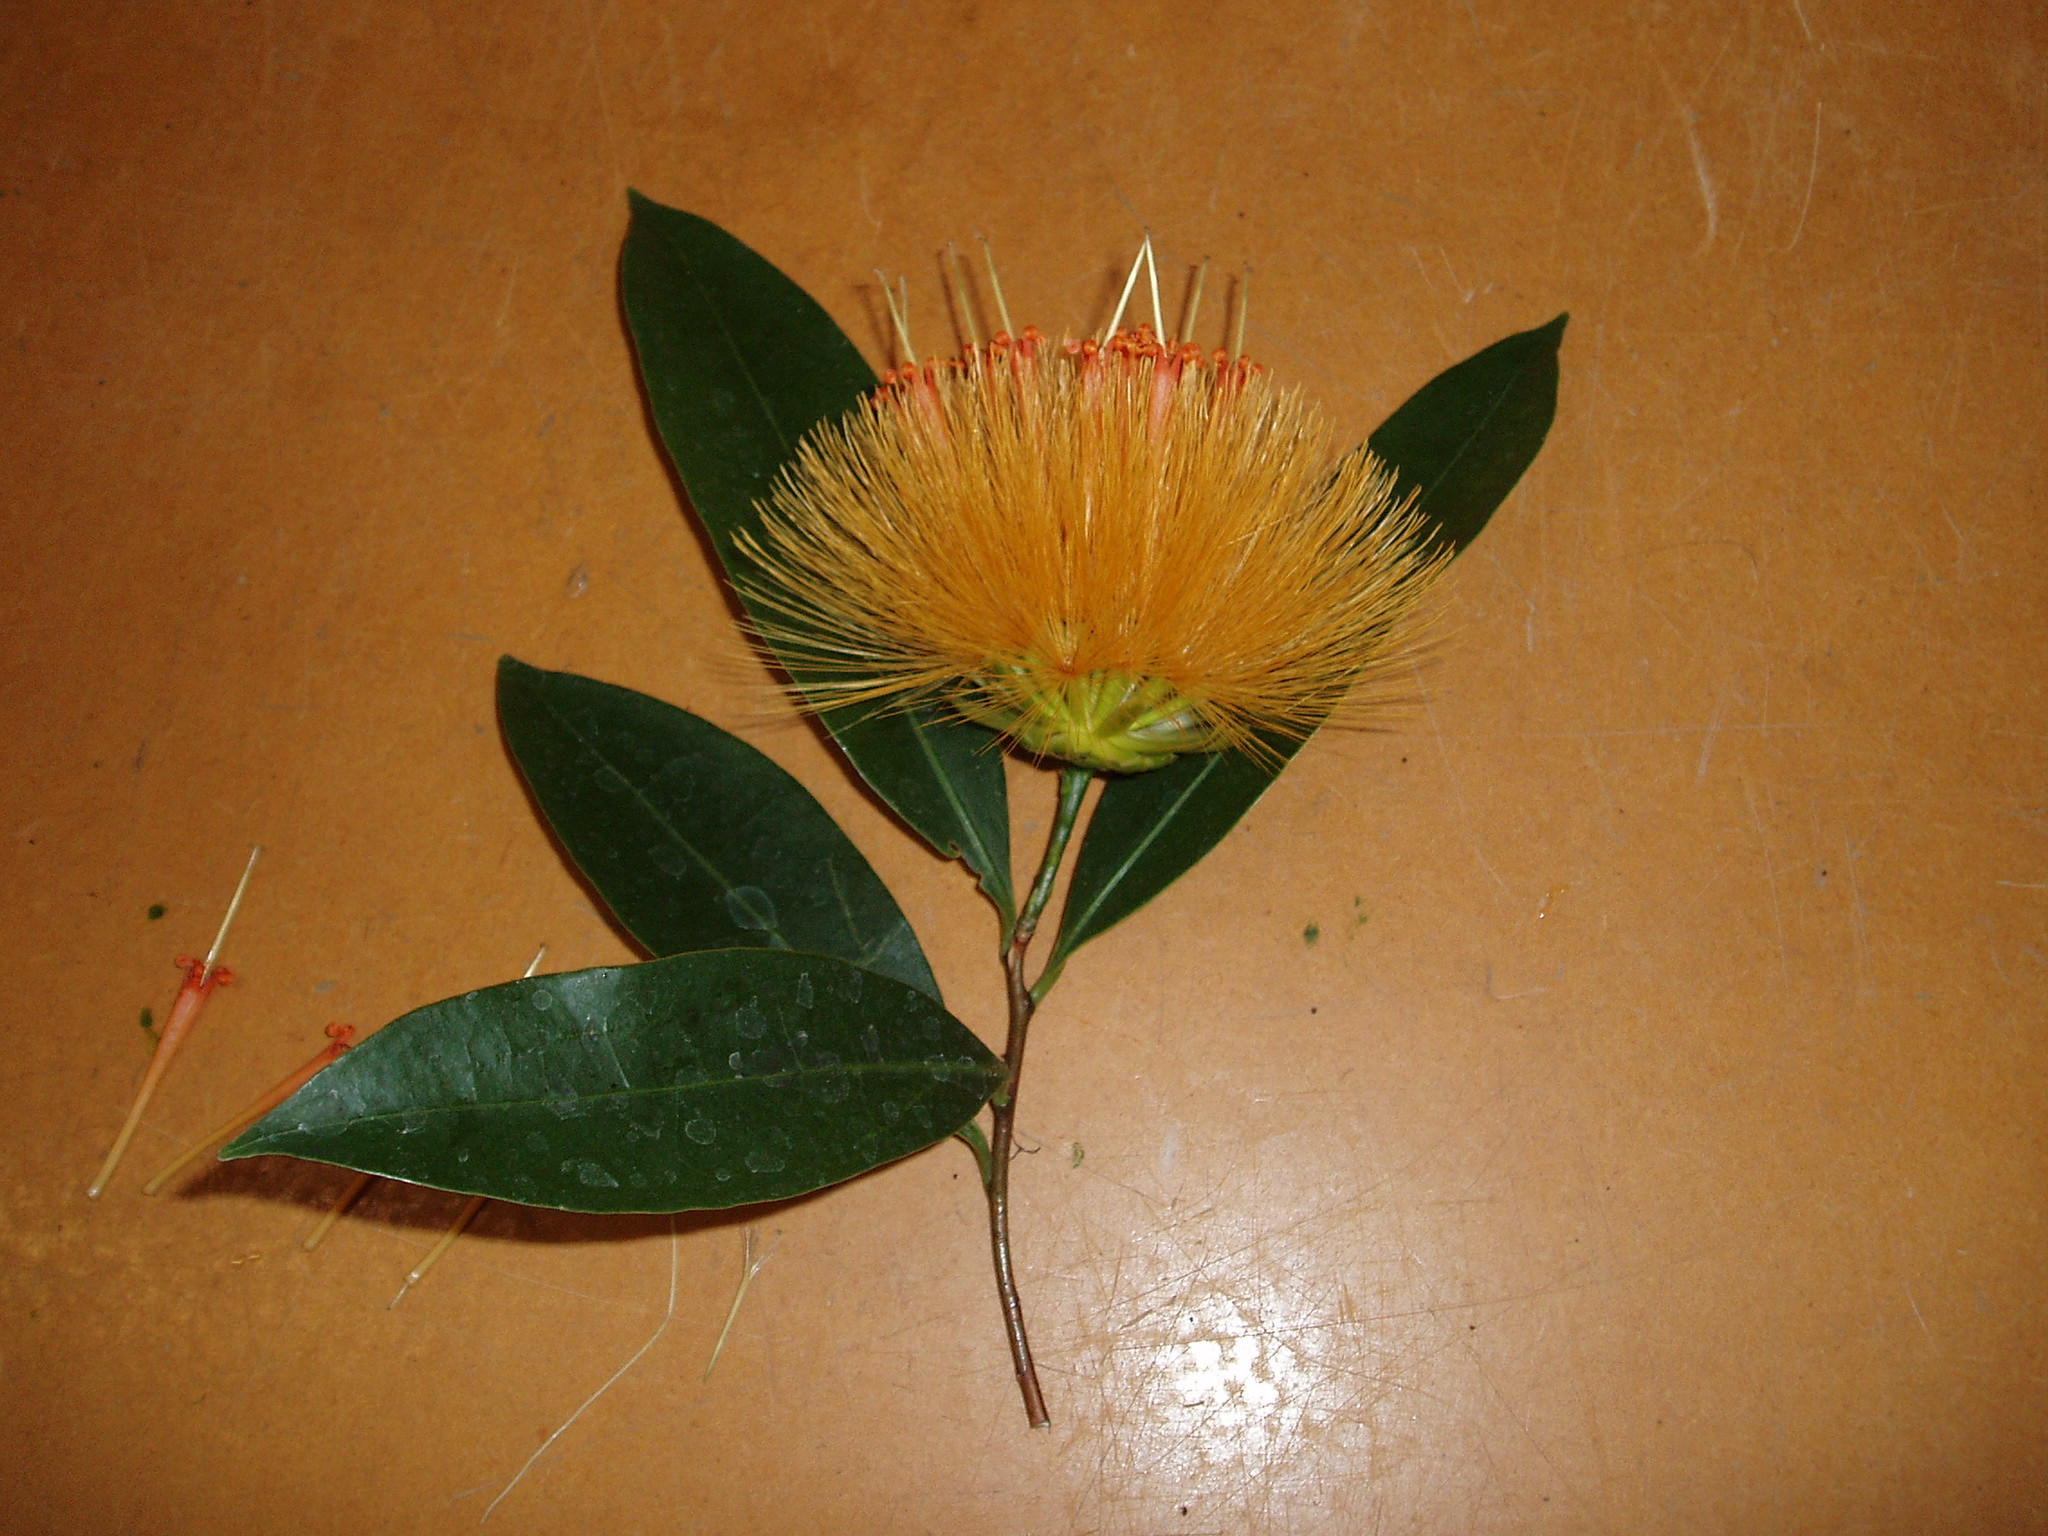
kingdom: Plantae
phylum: Tracheophyta
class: Magnoliopsida
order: Asterales
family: Asteraceae
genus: Stifftia
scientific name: Stifftia chrysantha
